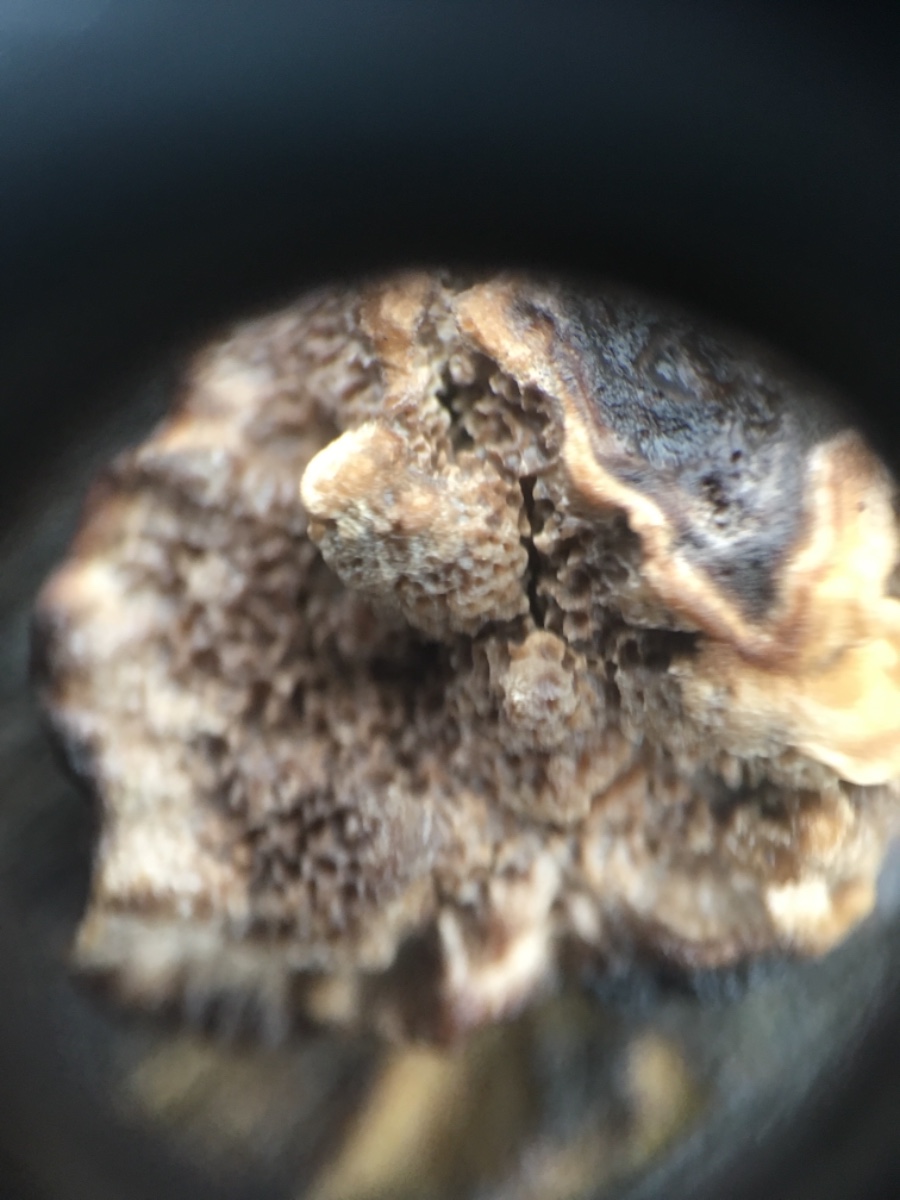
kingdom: Fungi
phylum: Basidiomycota
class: Agaricomycetes
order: Polyporales
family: Polyporaceae
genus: Podofomes
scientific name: Podofomes mollis
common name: blød begporesvamp
